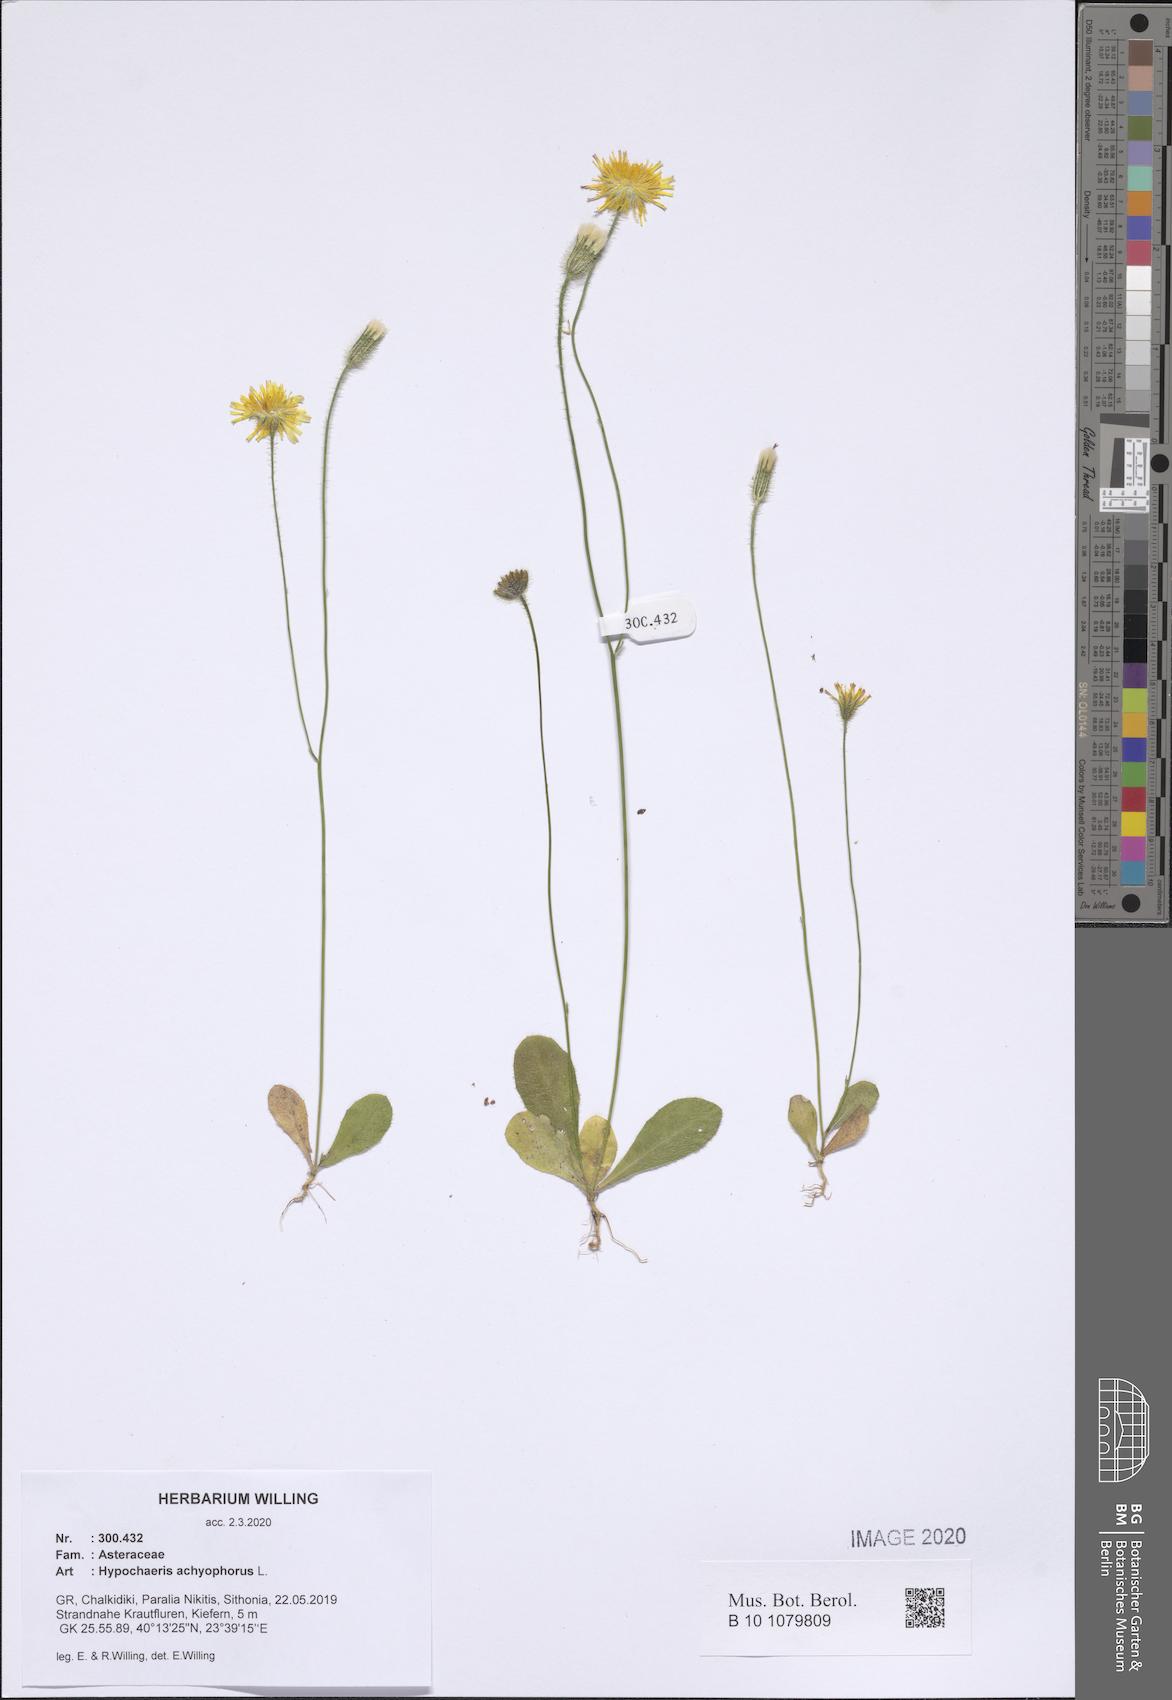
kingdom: Plantae
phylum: Tracheophyta
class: Magnoliopsida
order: Asterales
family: Asteraceae
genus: Achyrophorus
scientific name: Achyrophorus valdesii
